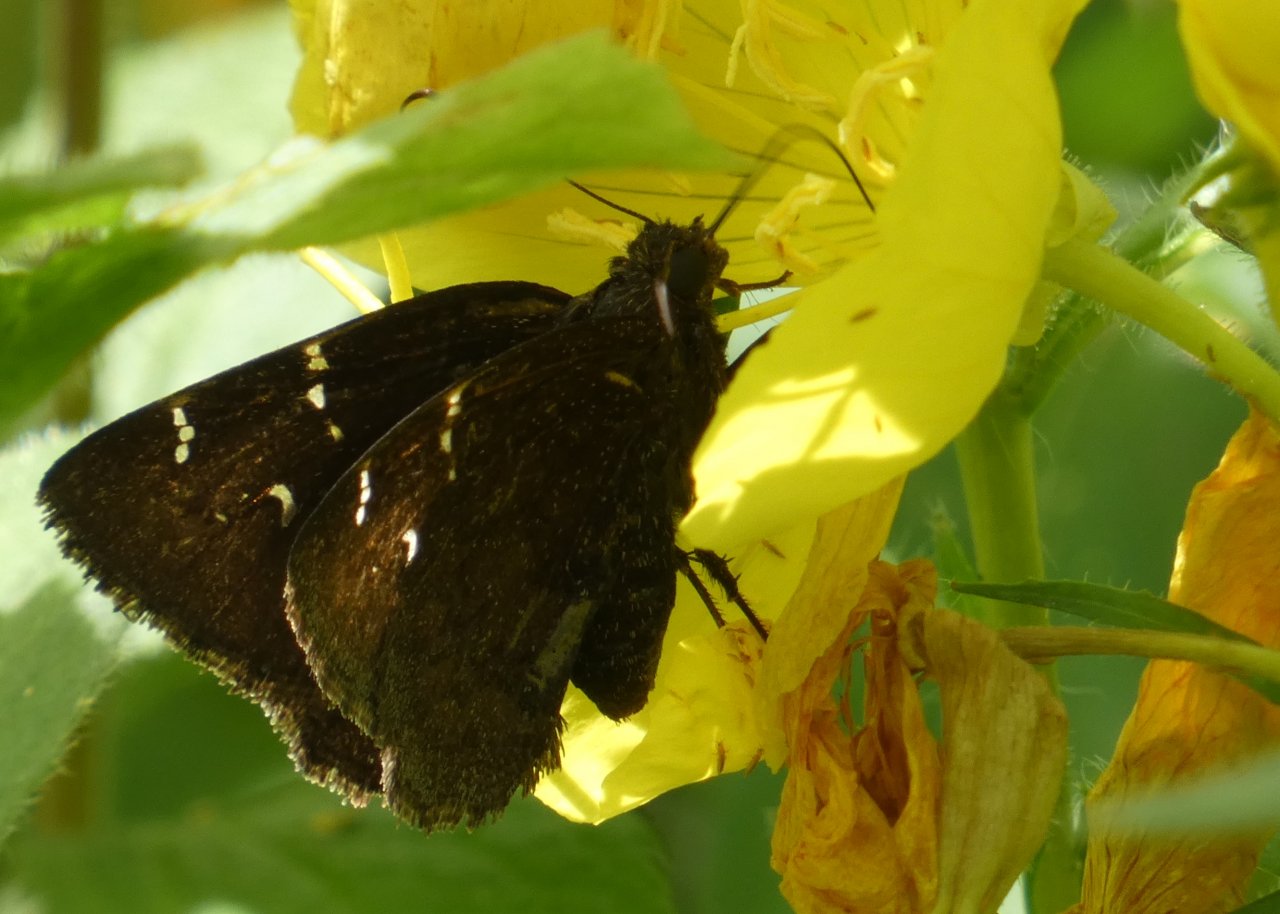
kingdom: Animalia
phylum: Arthropoda
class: Insecta
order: Lepidoptera
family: Hesperiidae
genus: Autochton
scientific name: Autochton
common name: Northern Cloudywing
